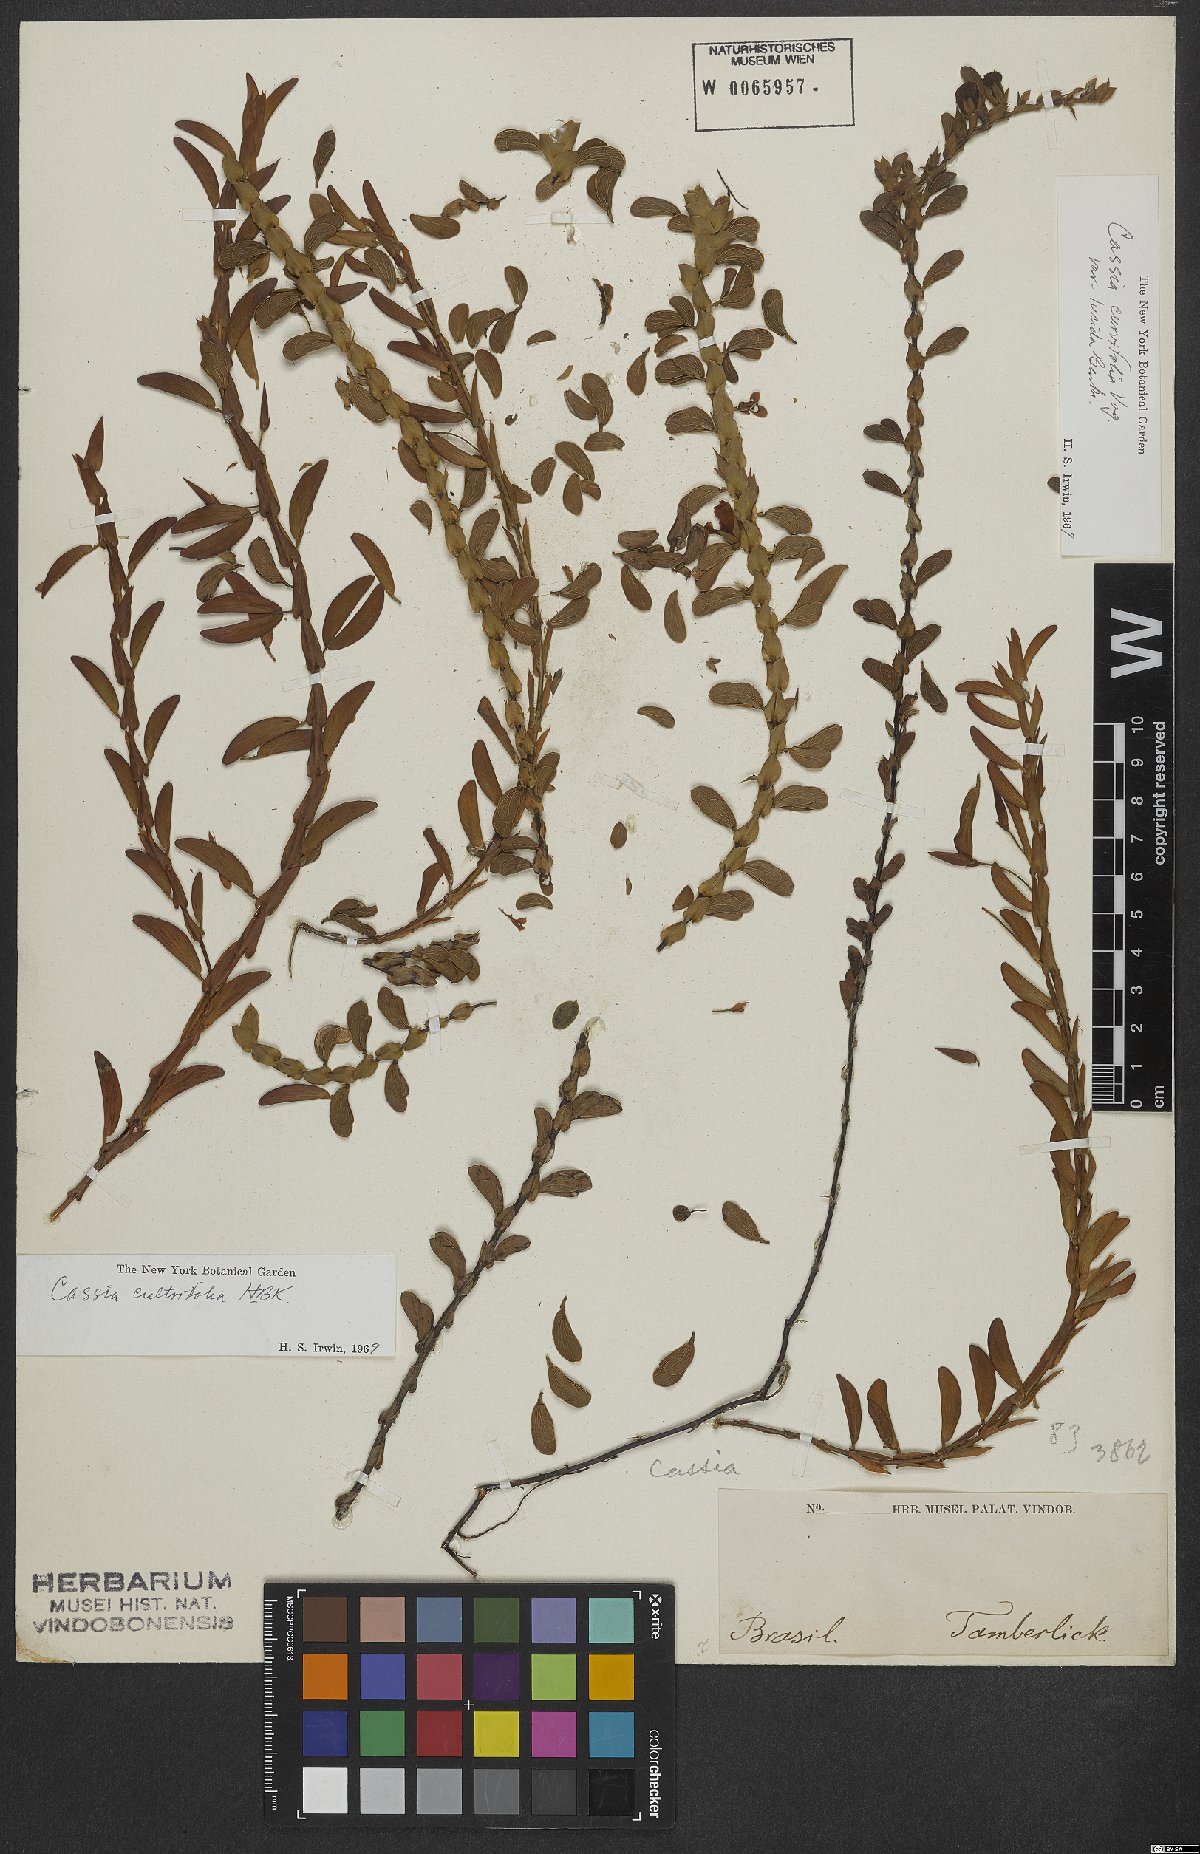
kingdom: Plantae
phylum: Tracheophyta
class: Magnoliopsida
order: Fabales
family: Fabaceae
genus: Chamaecrista
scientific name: Chamaecrista cultrifolia
